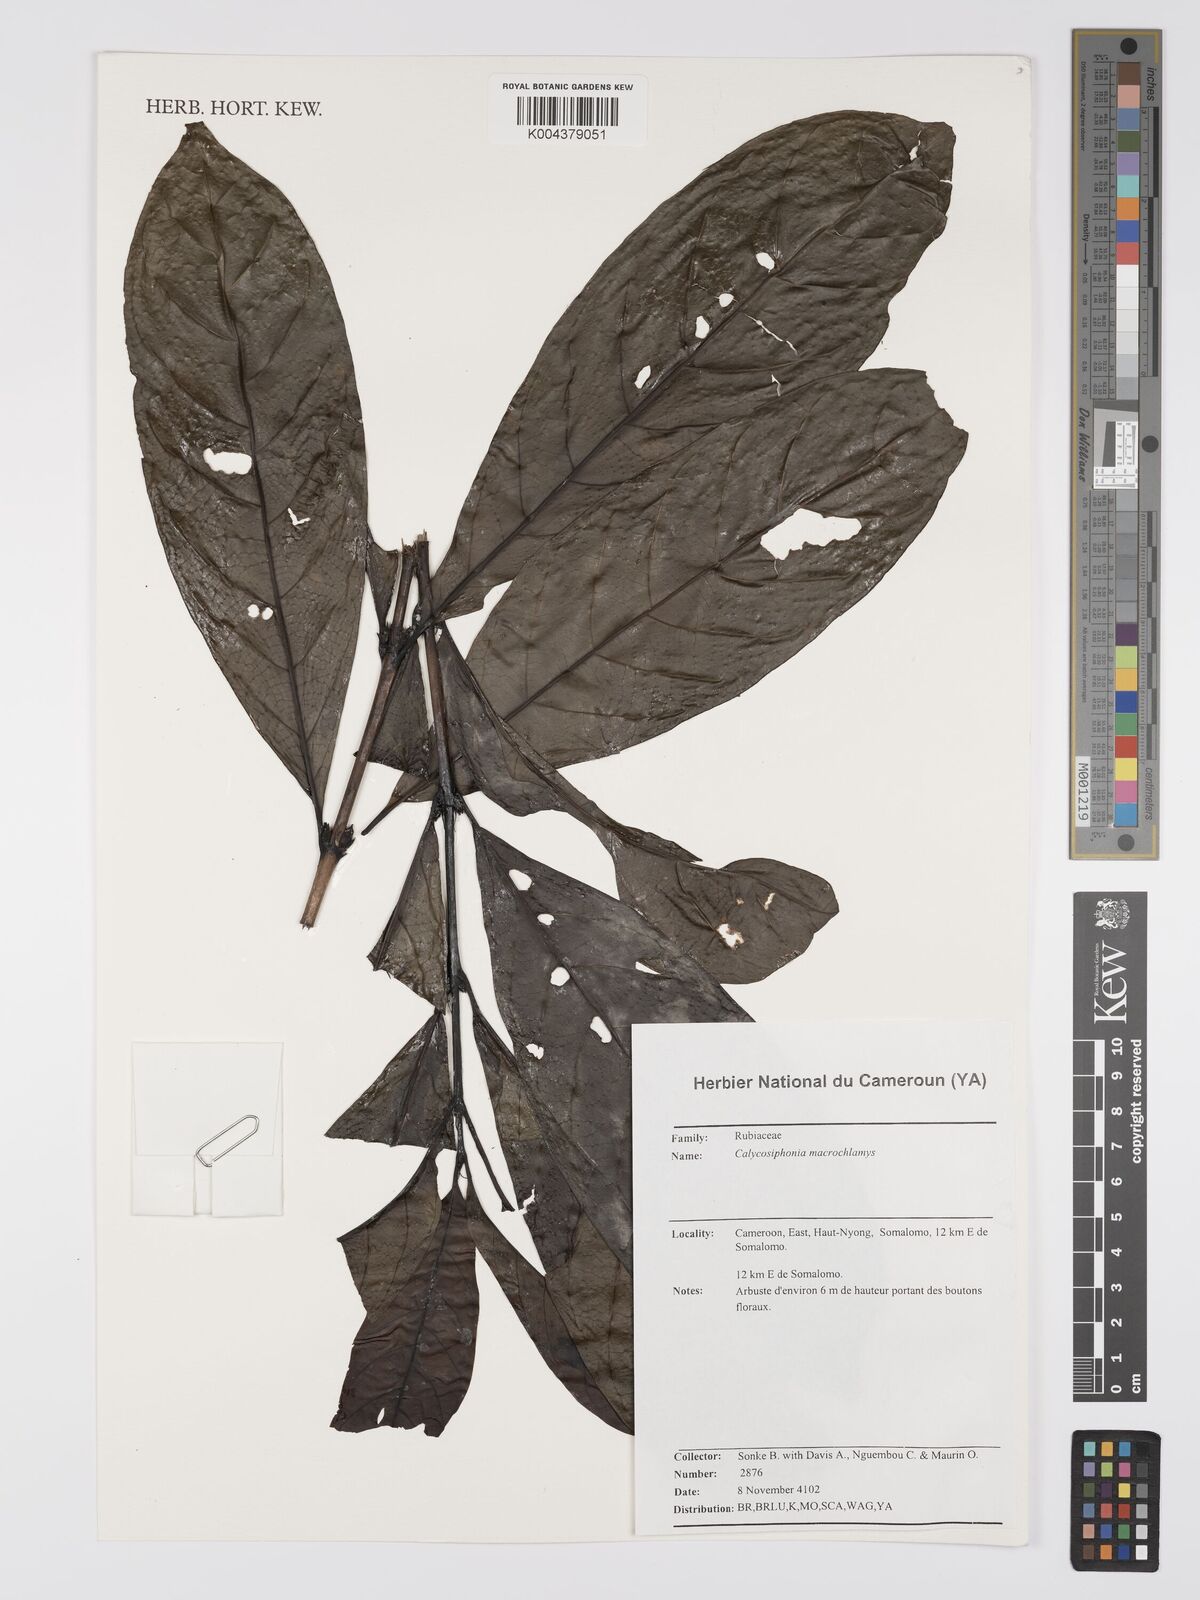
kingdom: Plantae
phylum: Tracheophyta
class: Magnoliopsida
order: Gentianales
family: Rubiaceae
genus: Calycosiphonia
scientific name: Calycosiphonia macrochlamys
